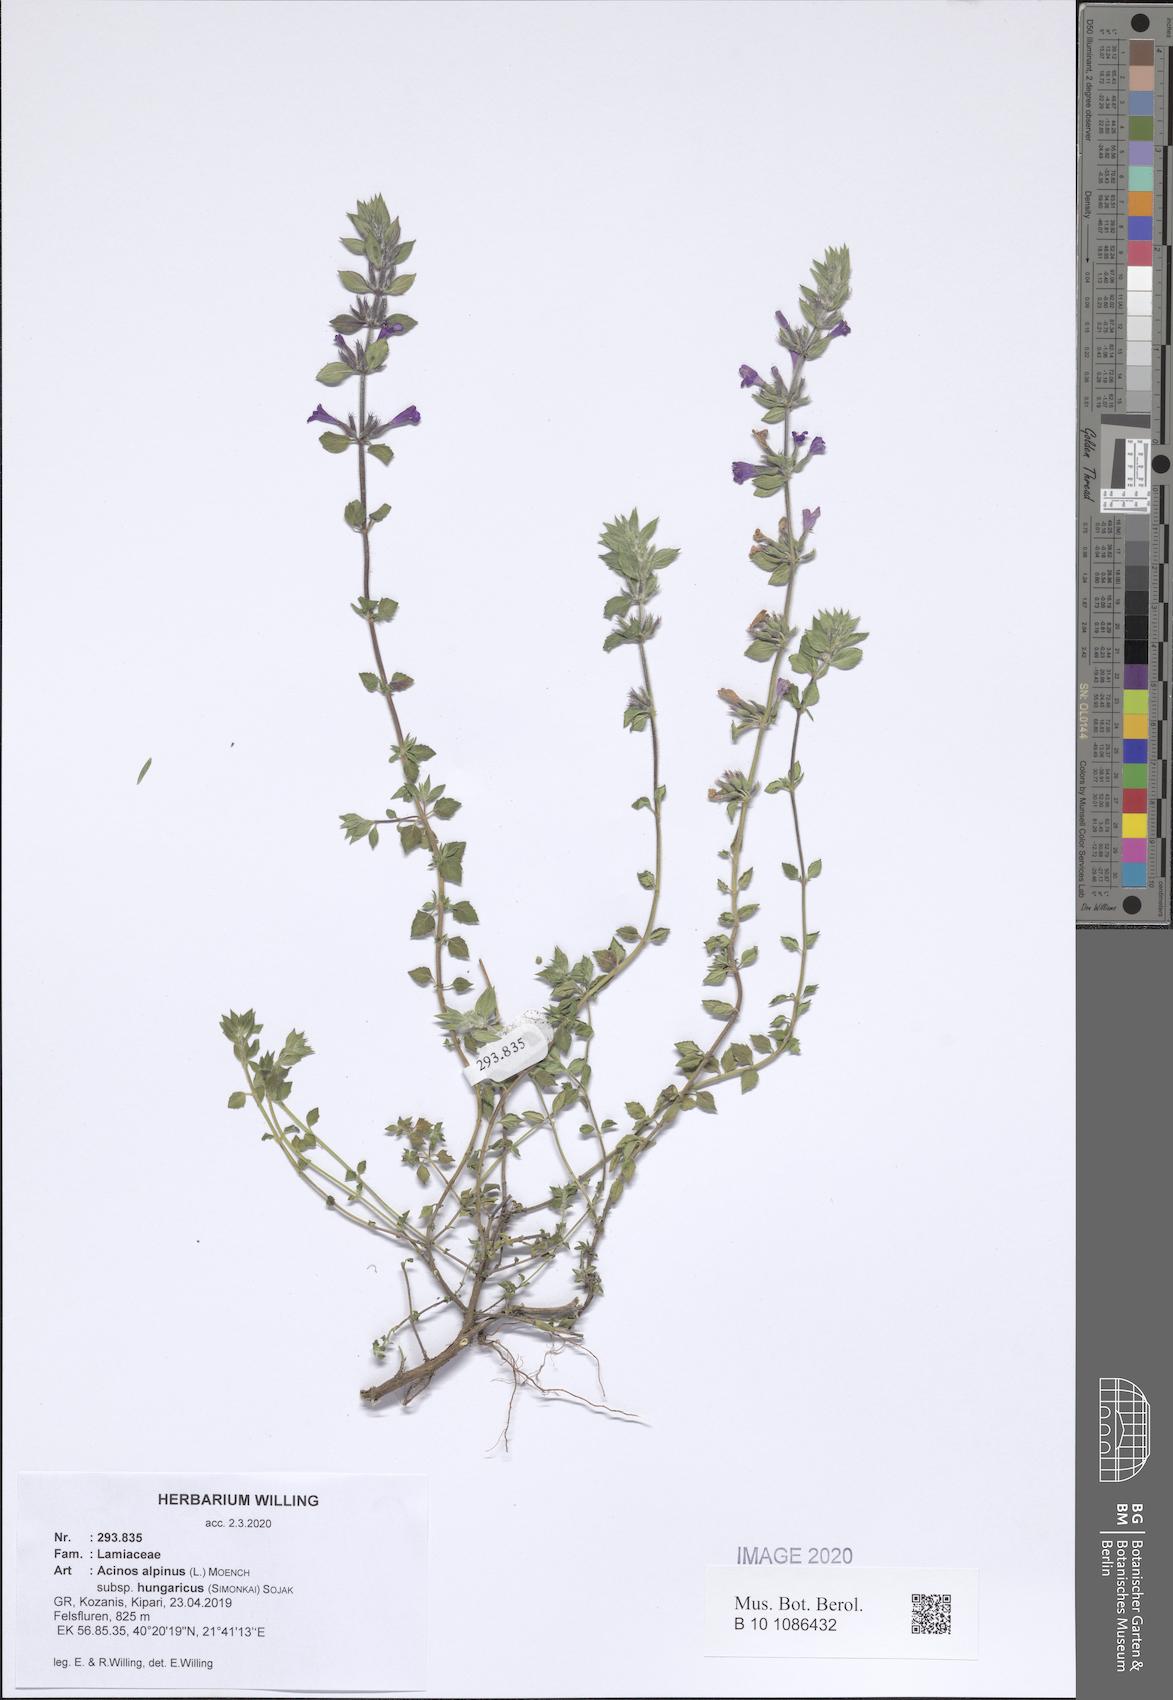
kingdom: Plantae
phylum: Tracheophyta
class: Magnoliopsida
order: Lamiales
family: Lamiaceae
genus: Clinopodium
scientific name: Clinopodium alpinum
